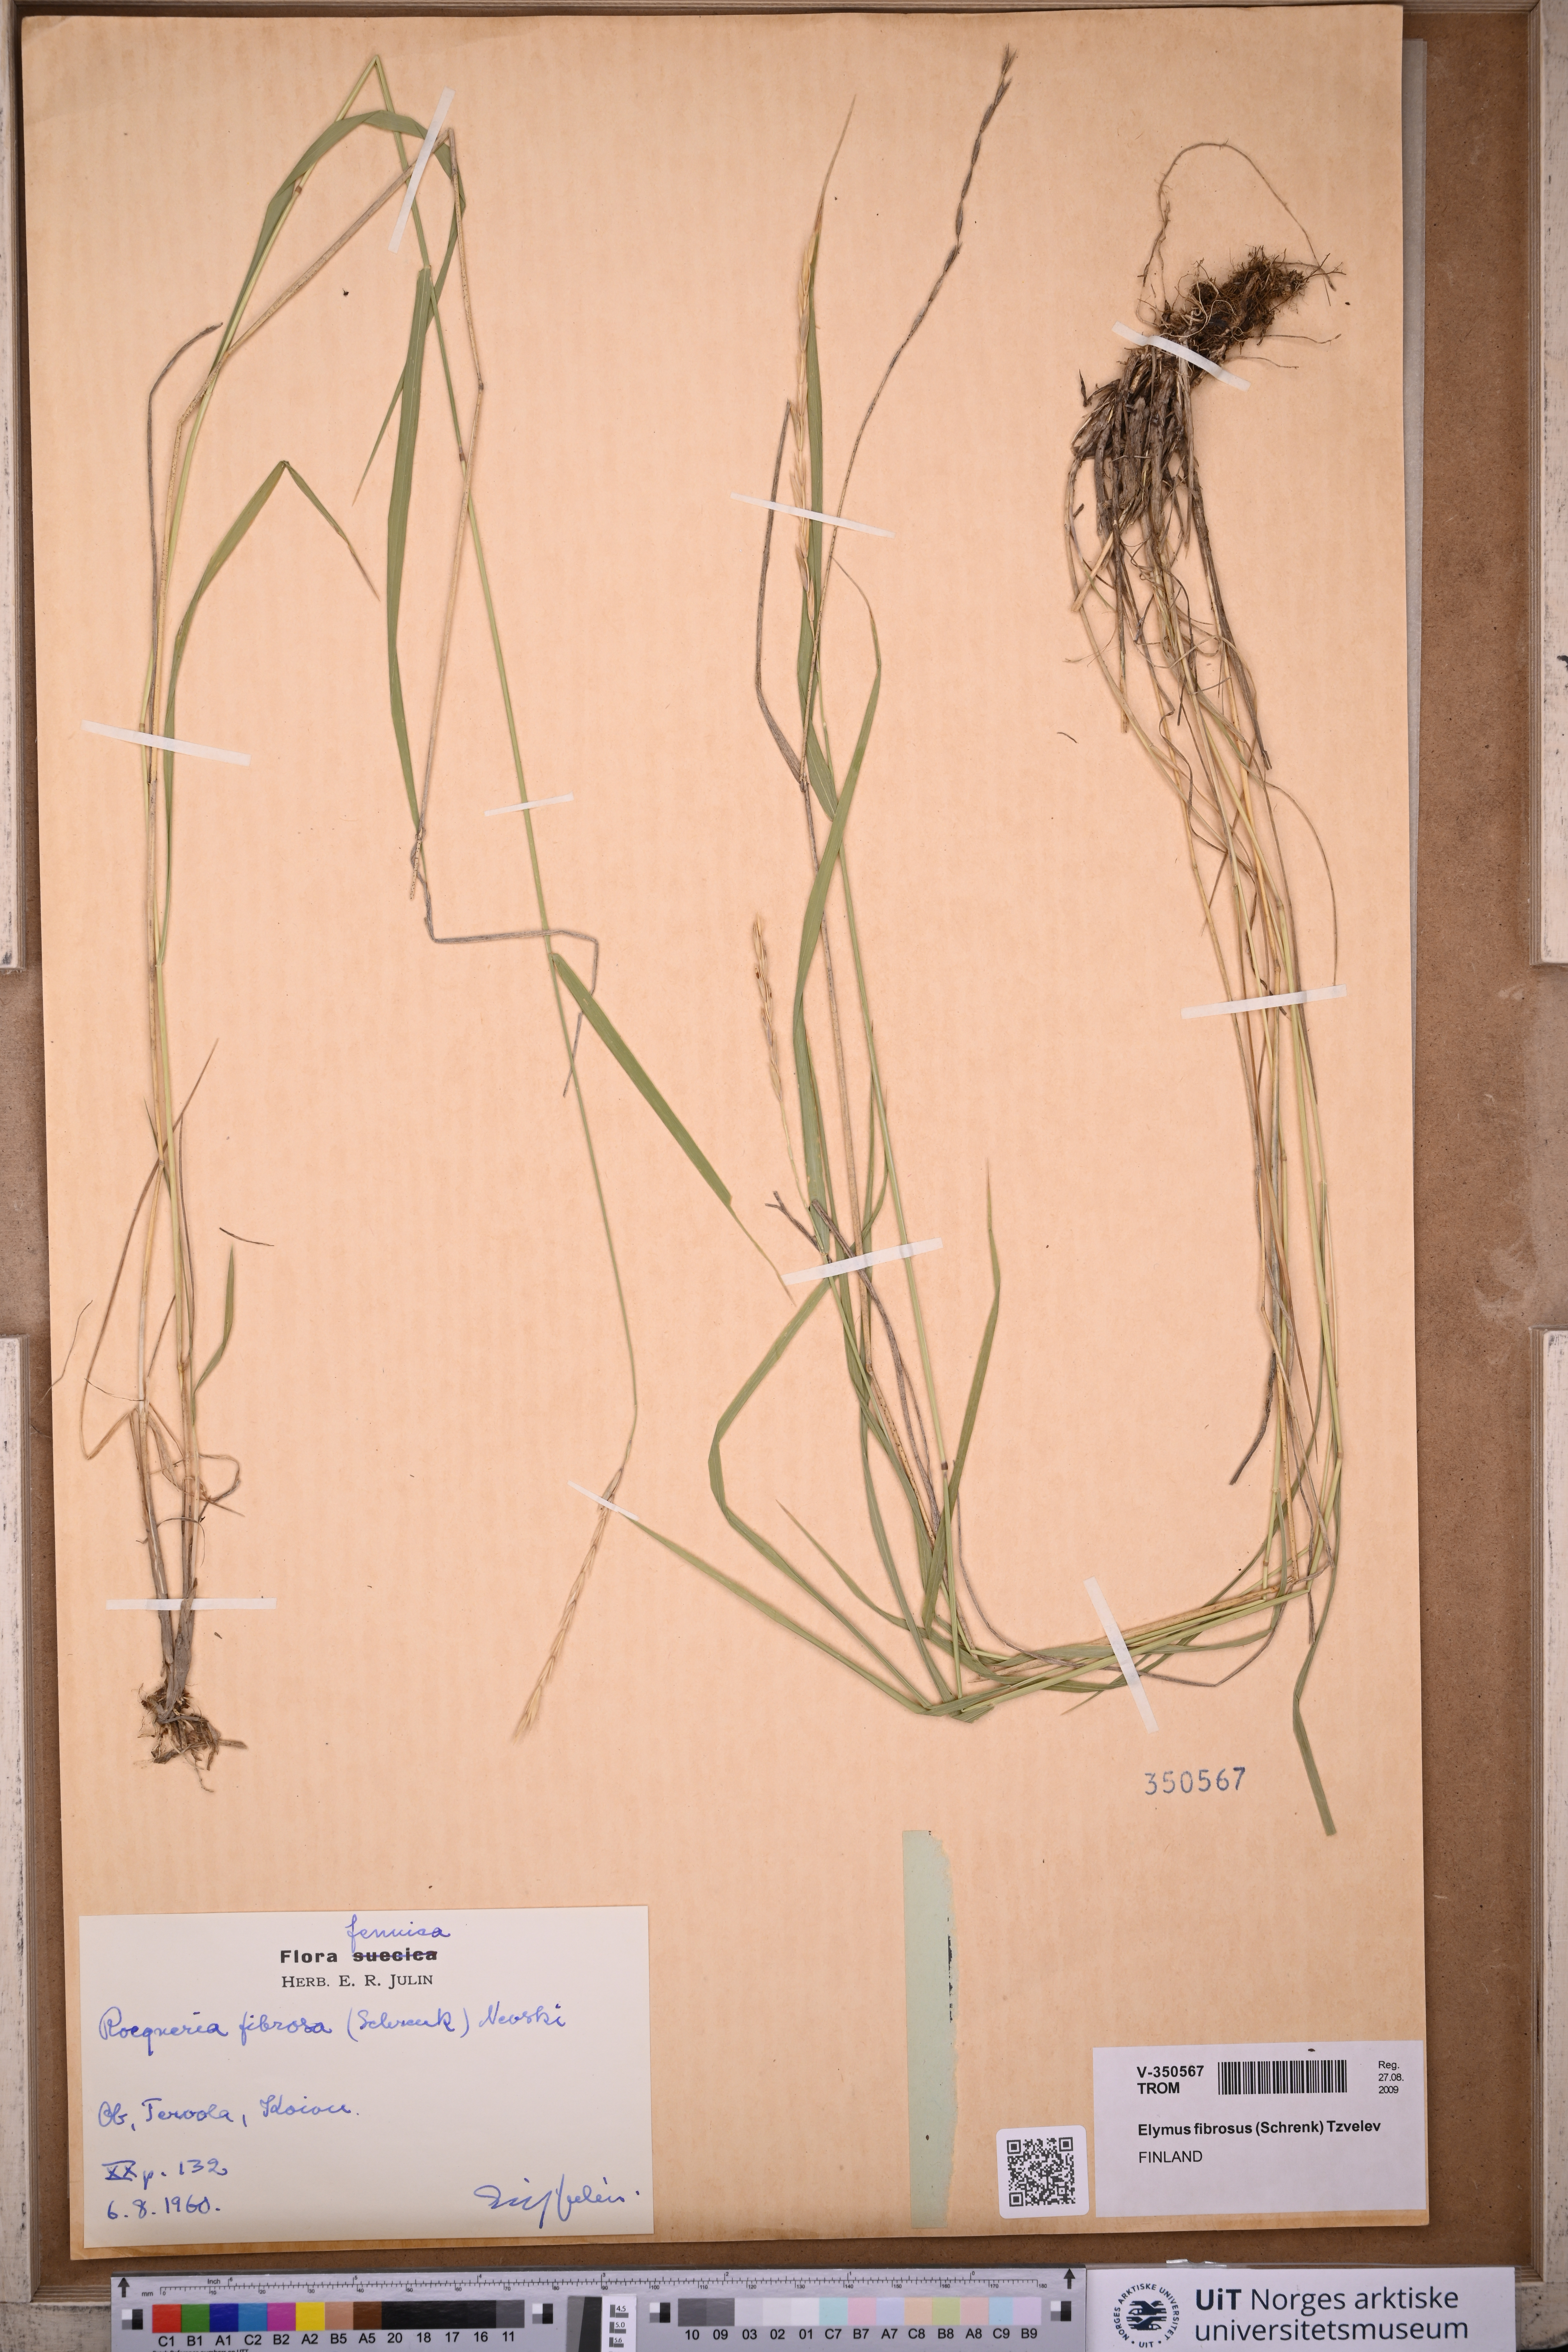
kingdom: Plantae
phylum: Tracheophyta
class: Liliopsida
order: Poales
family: Poaceae
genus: Elymus
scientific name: Elymus fibrosus
